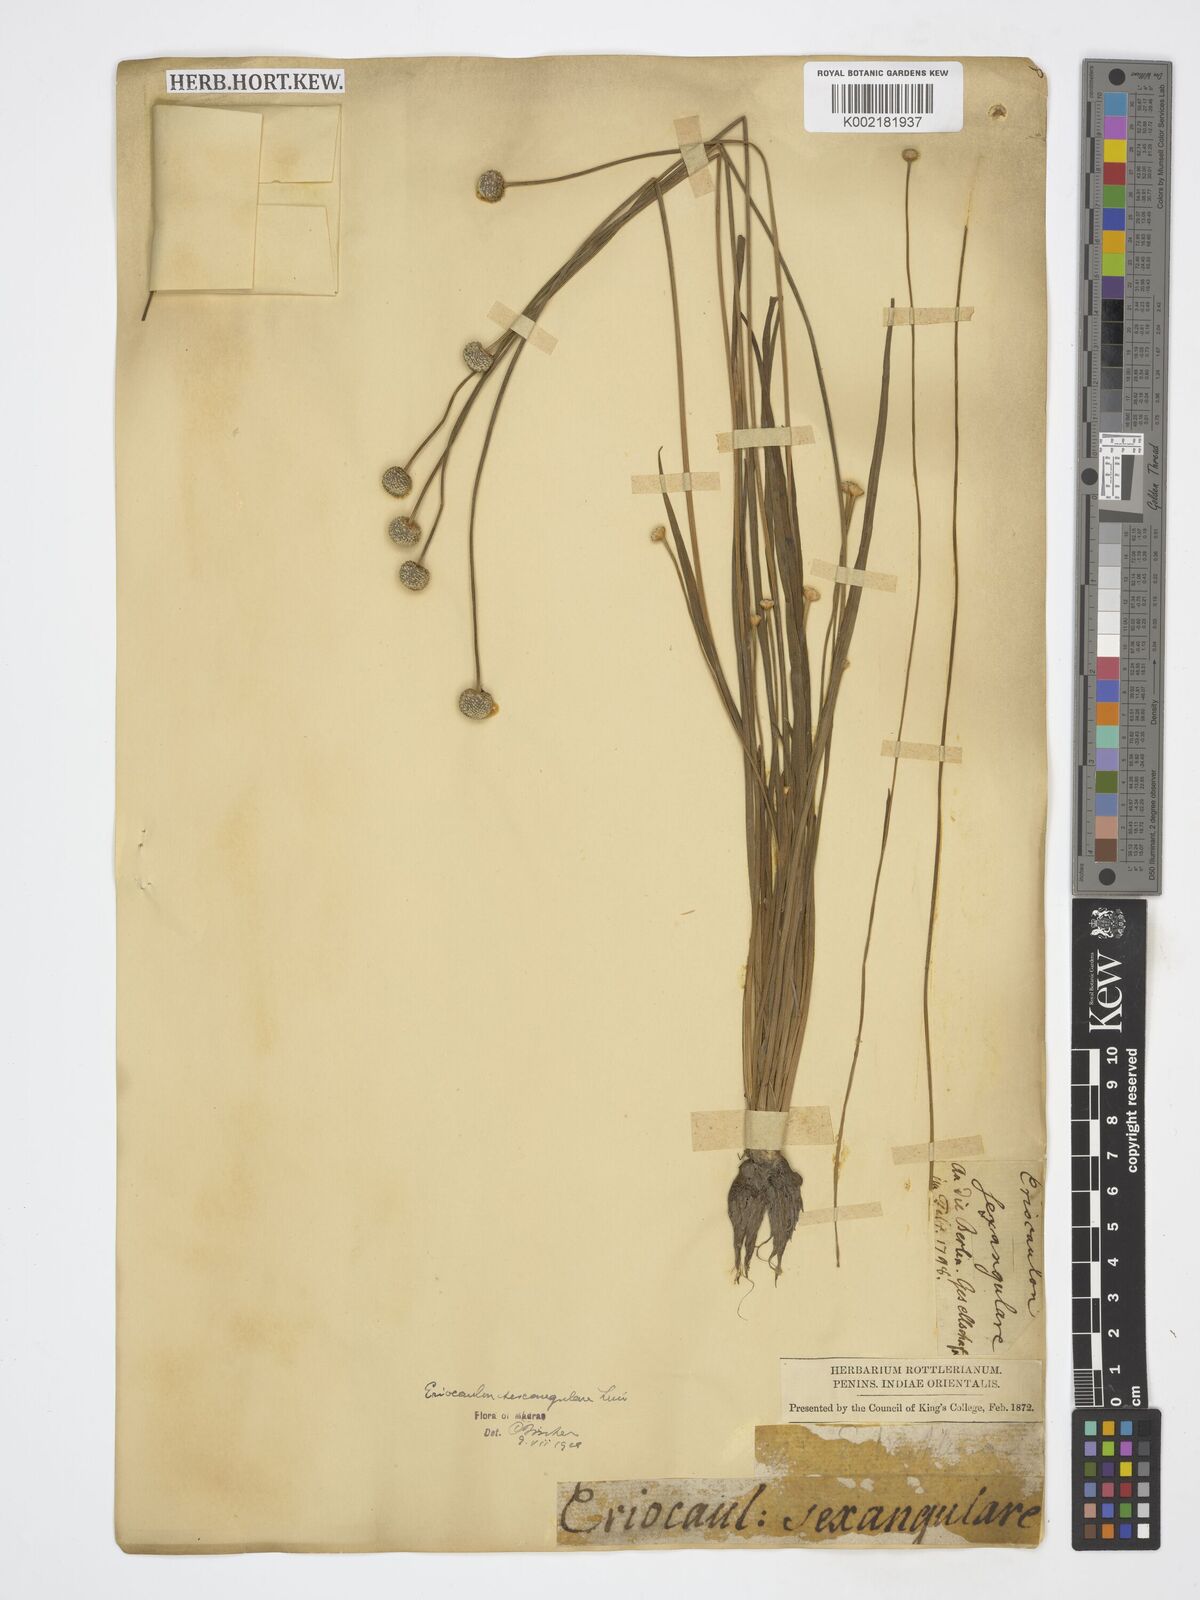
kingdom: Plantae
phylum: Tracheophyta
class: Liliopsida
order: Poales
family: Eriocaulaceae
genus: Eriocaulon
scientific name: Eriocaulon sexangulare
